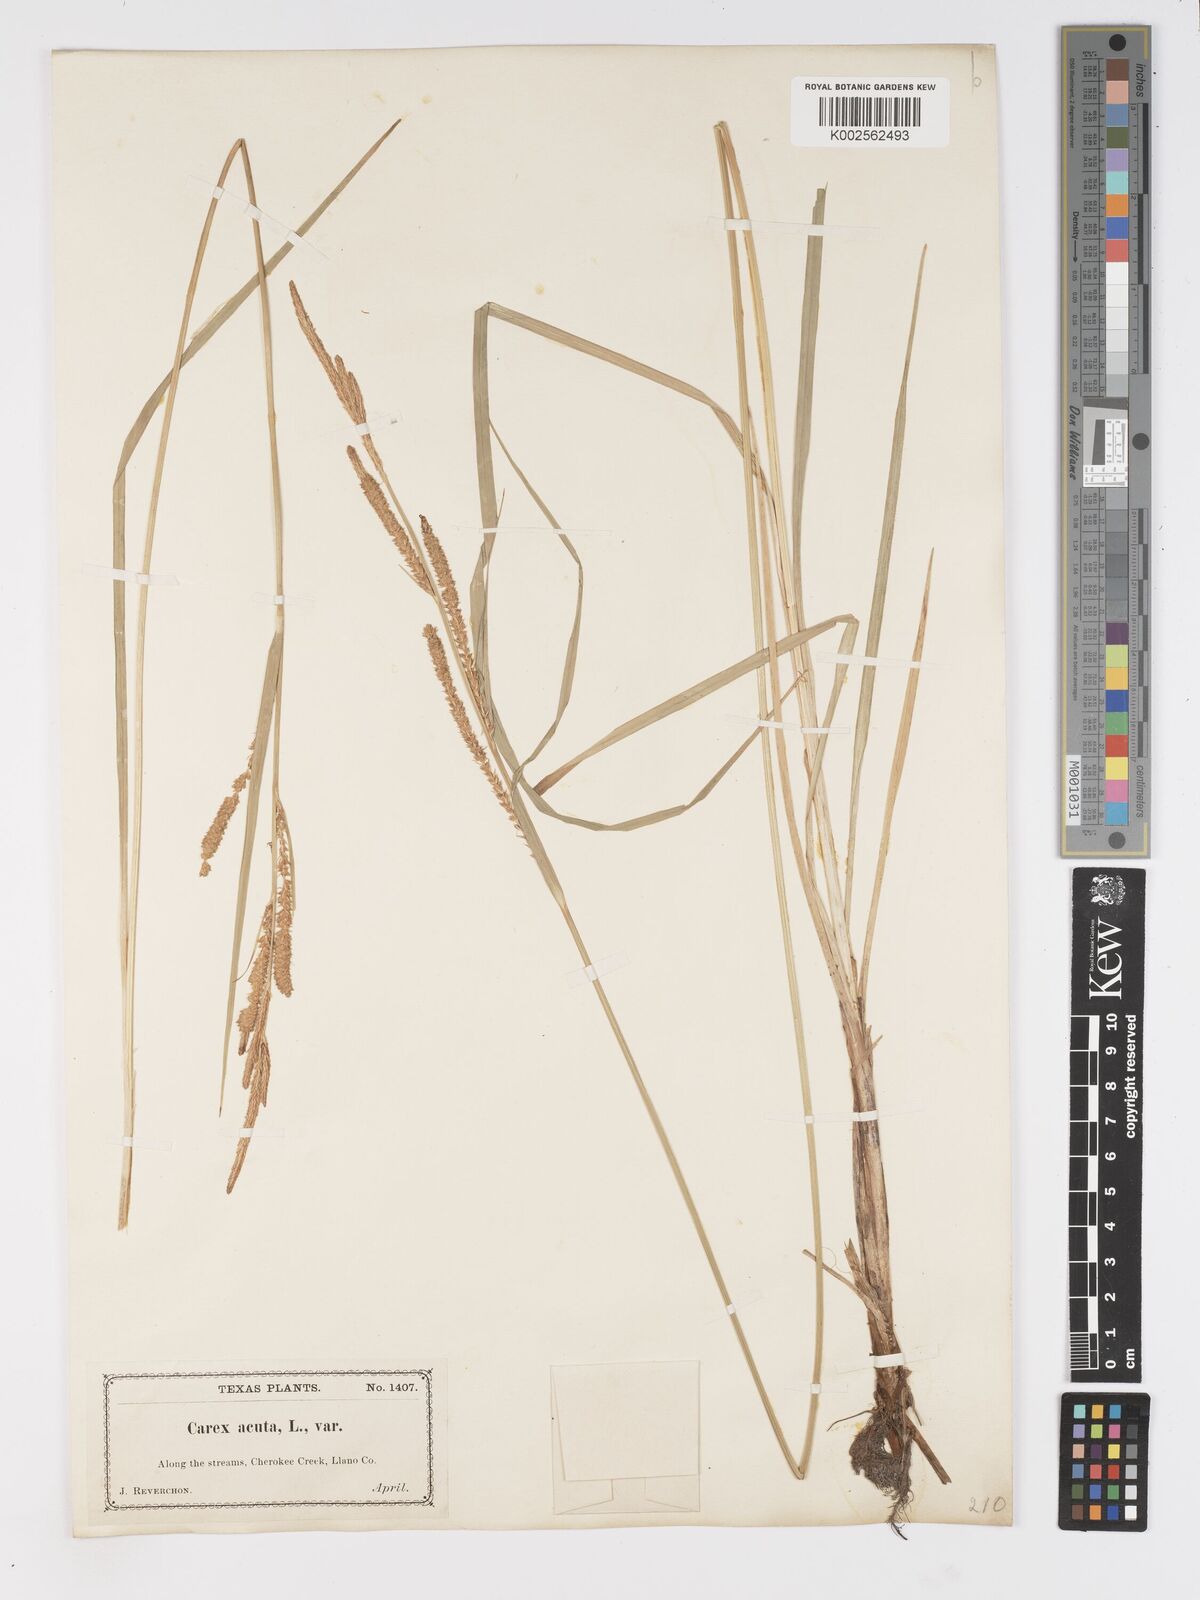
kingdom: Plantae
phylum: Tracheophyta
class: Liliopsida
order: Poales
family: Cyperaceae
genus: Carex
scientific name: Carex
